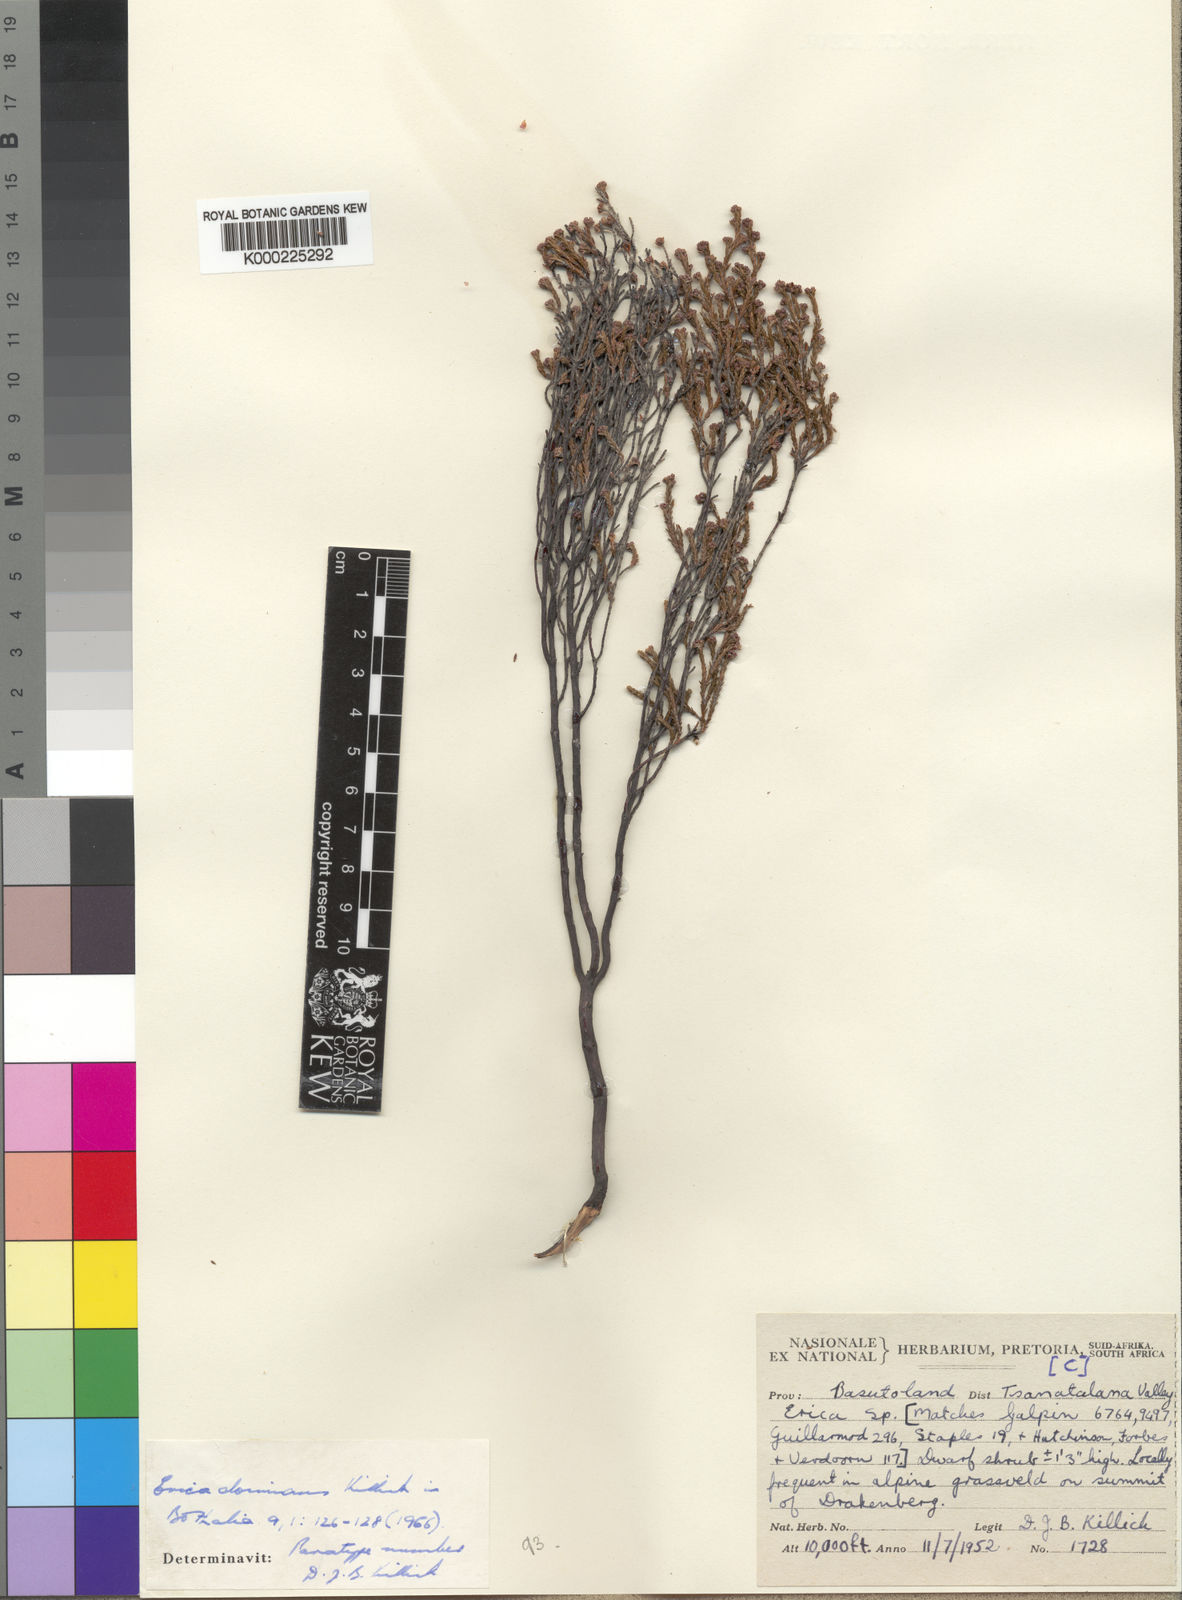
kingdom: Plantae
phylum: Tracheophyta
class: Magnoliopsida
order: Ericales
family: Ericaceae
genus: Erica
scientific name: Erica dominans
